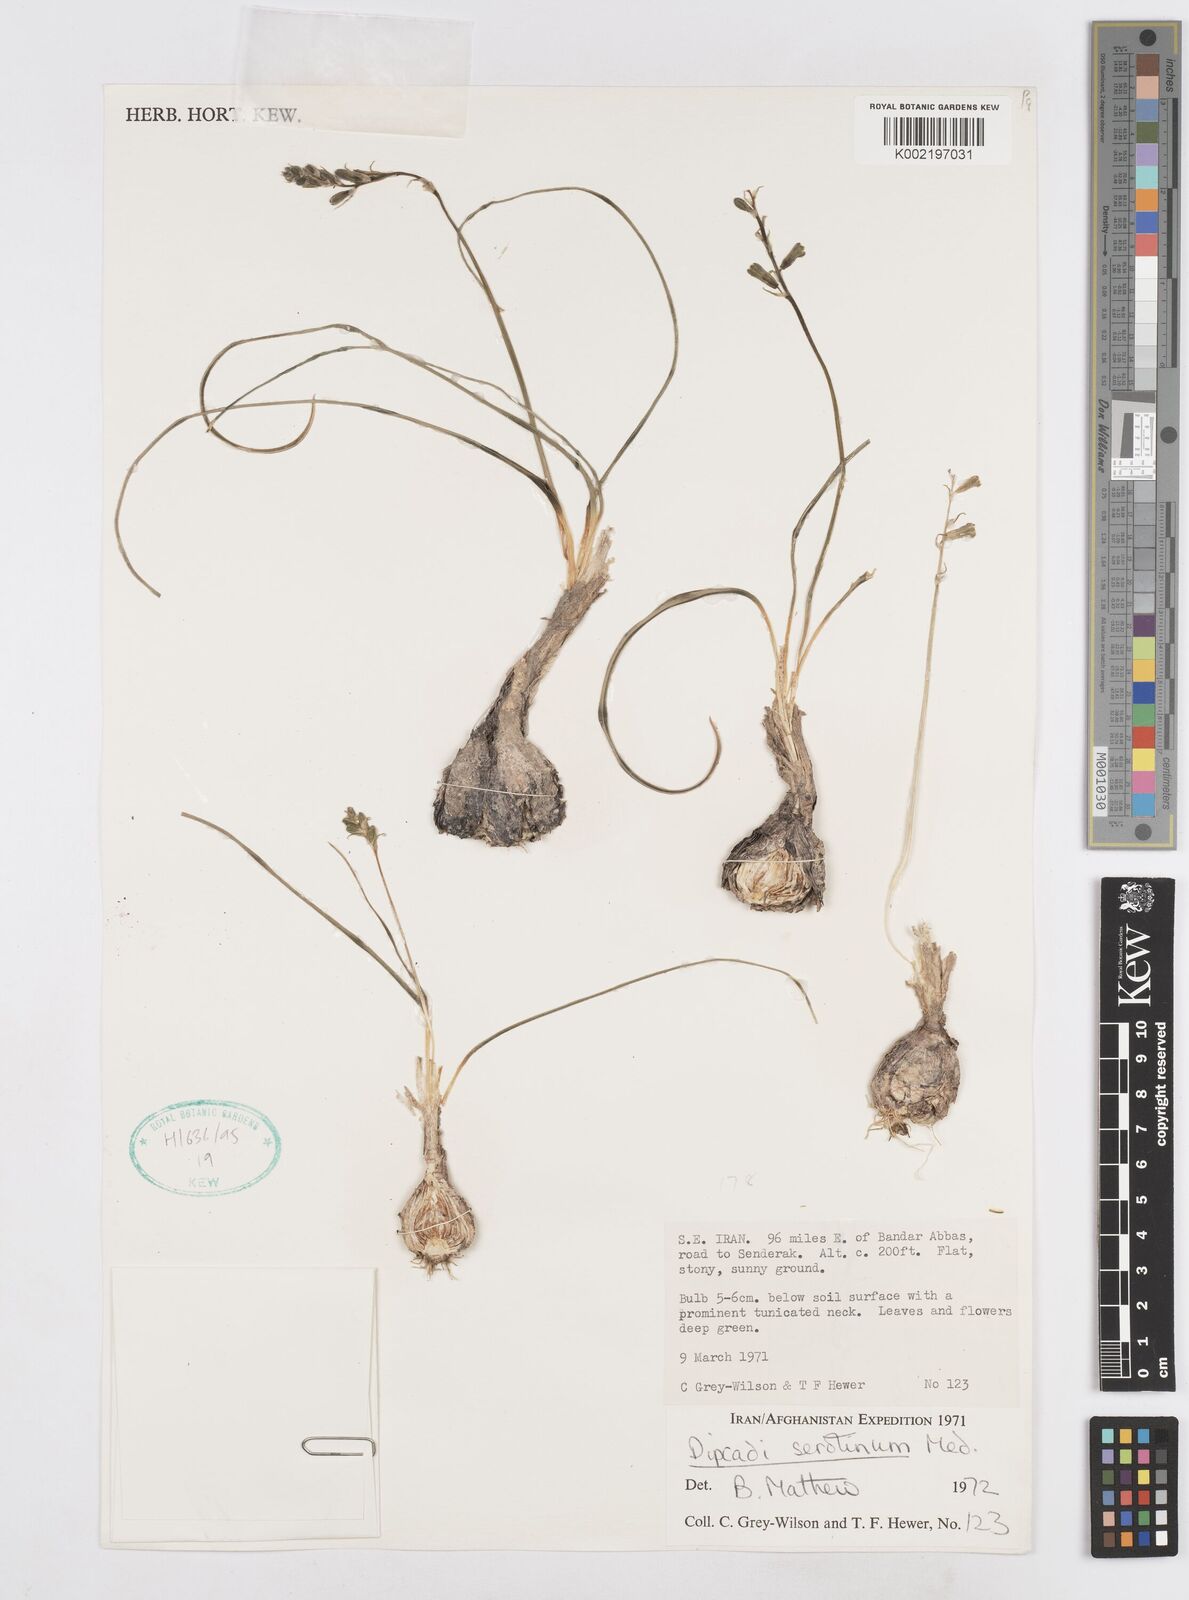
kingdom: Plantae
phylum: Tracheophyta
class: Liliopsida
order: Asparagales
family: Asparagaceae
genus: Dipcadi
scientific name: Dipcadi serotinum
